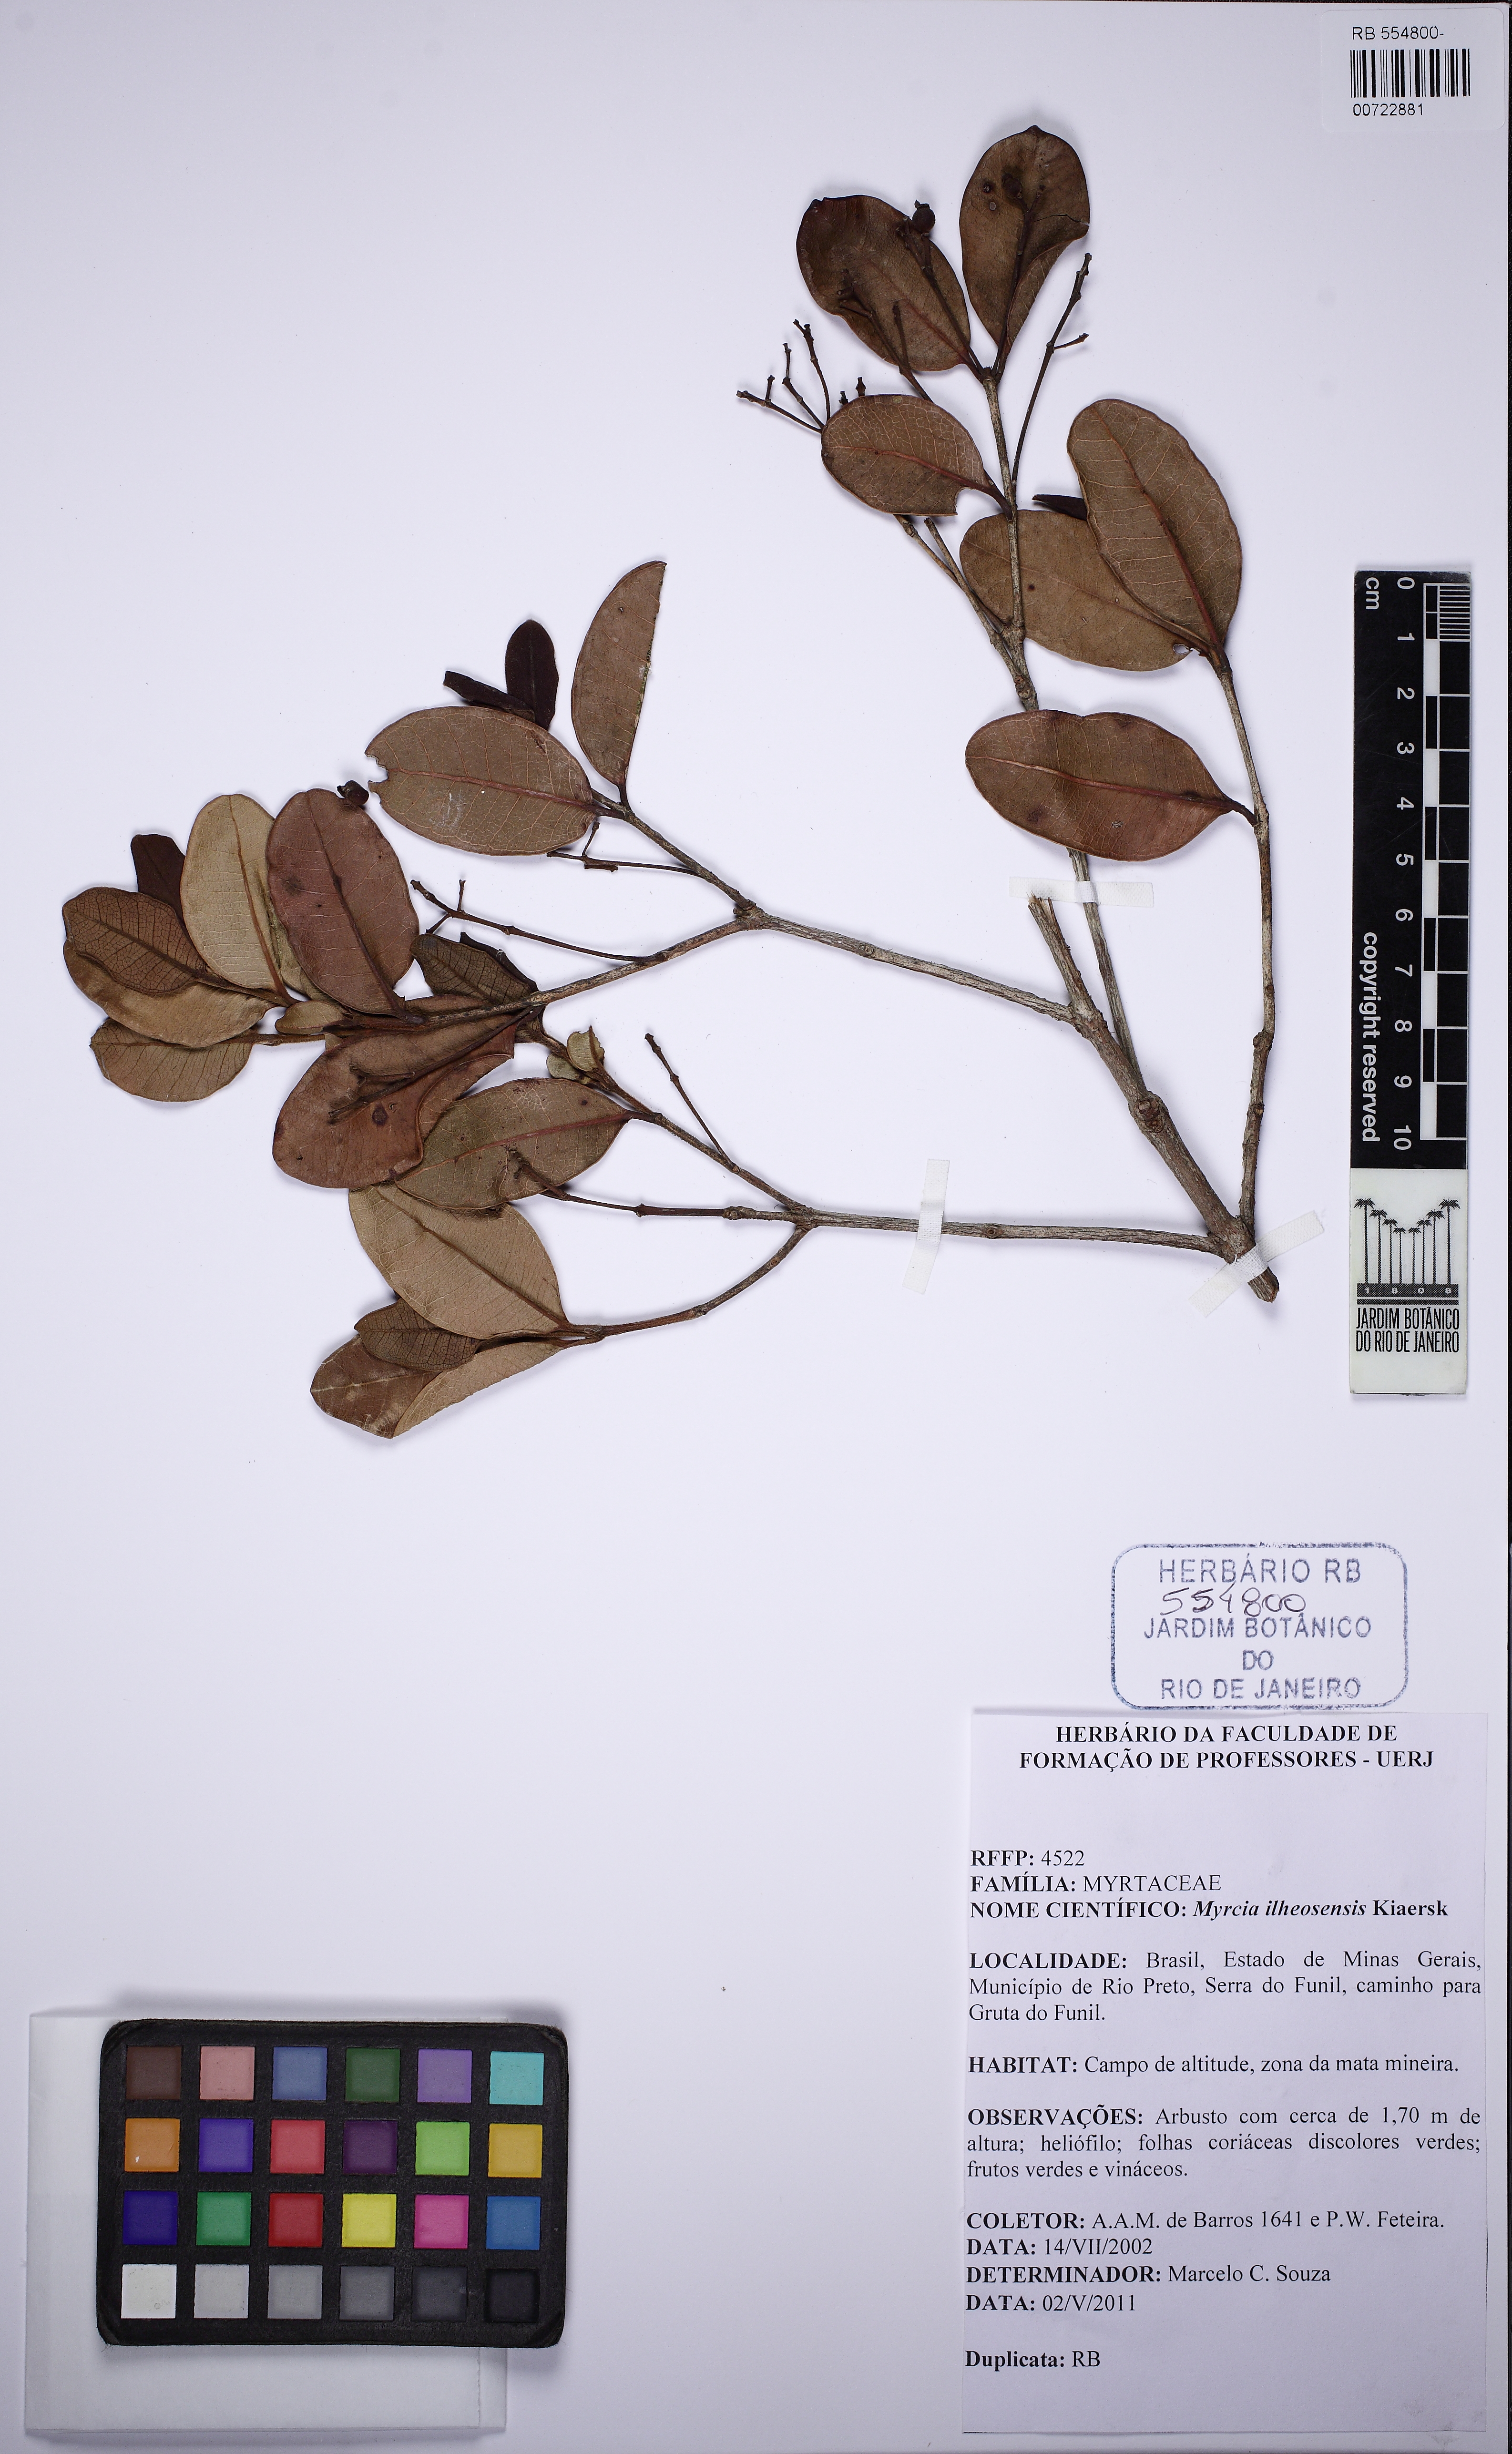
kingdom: Plantae
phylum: Tracheophyta
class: Magnoliopsida
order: Myrtales
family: Myrtaceae
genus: Myrcia
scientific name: Myrcia
